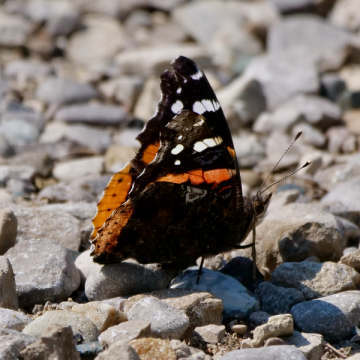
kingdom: Animalia
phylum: Arthropoda
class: Insecta
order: Lepidoptera
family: Nymphalidae
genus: Vanessa
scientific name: Vanessa atalanta
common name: Red Admiral
